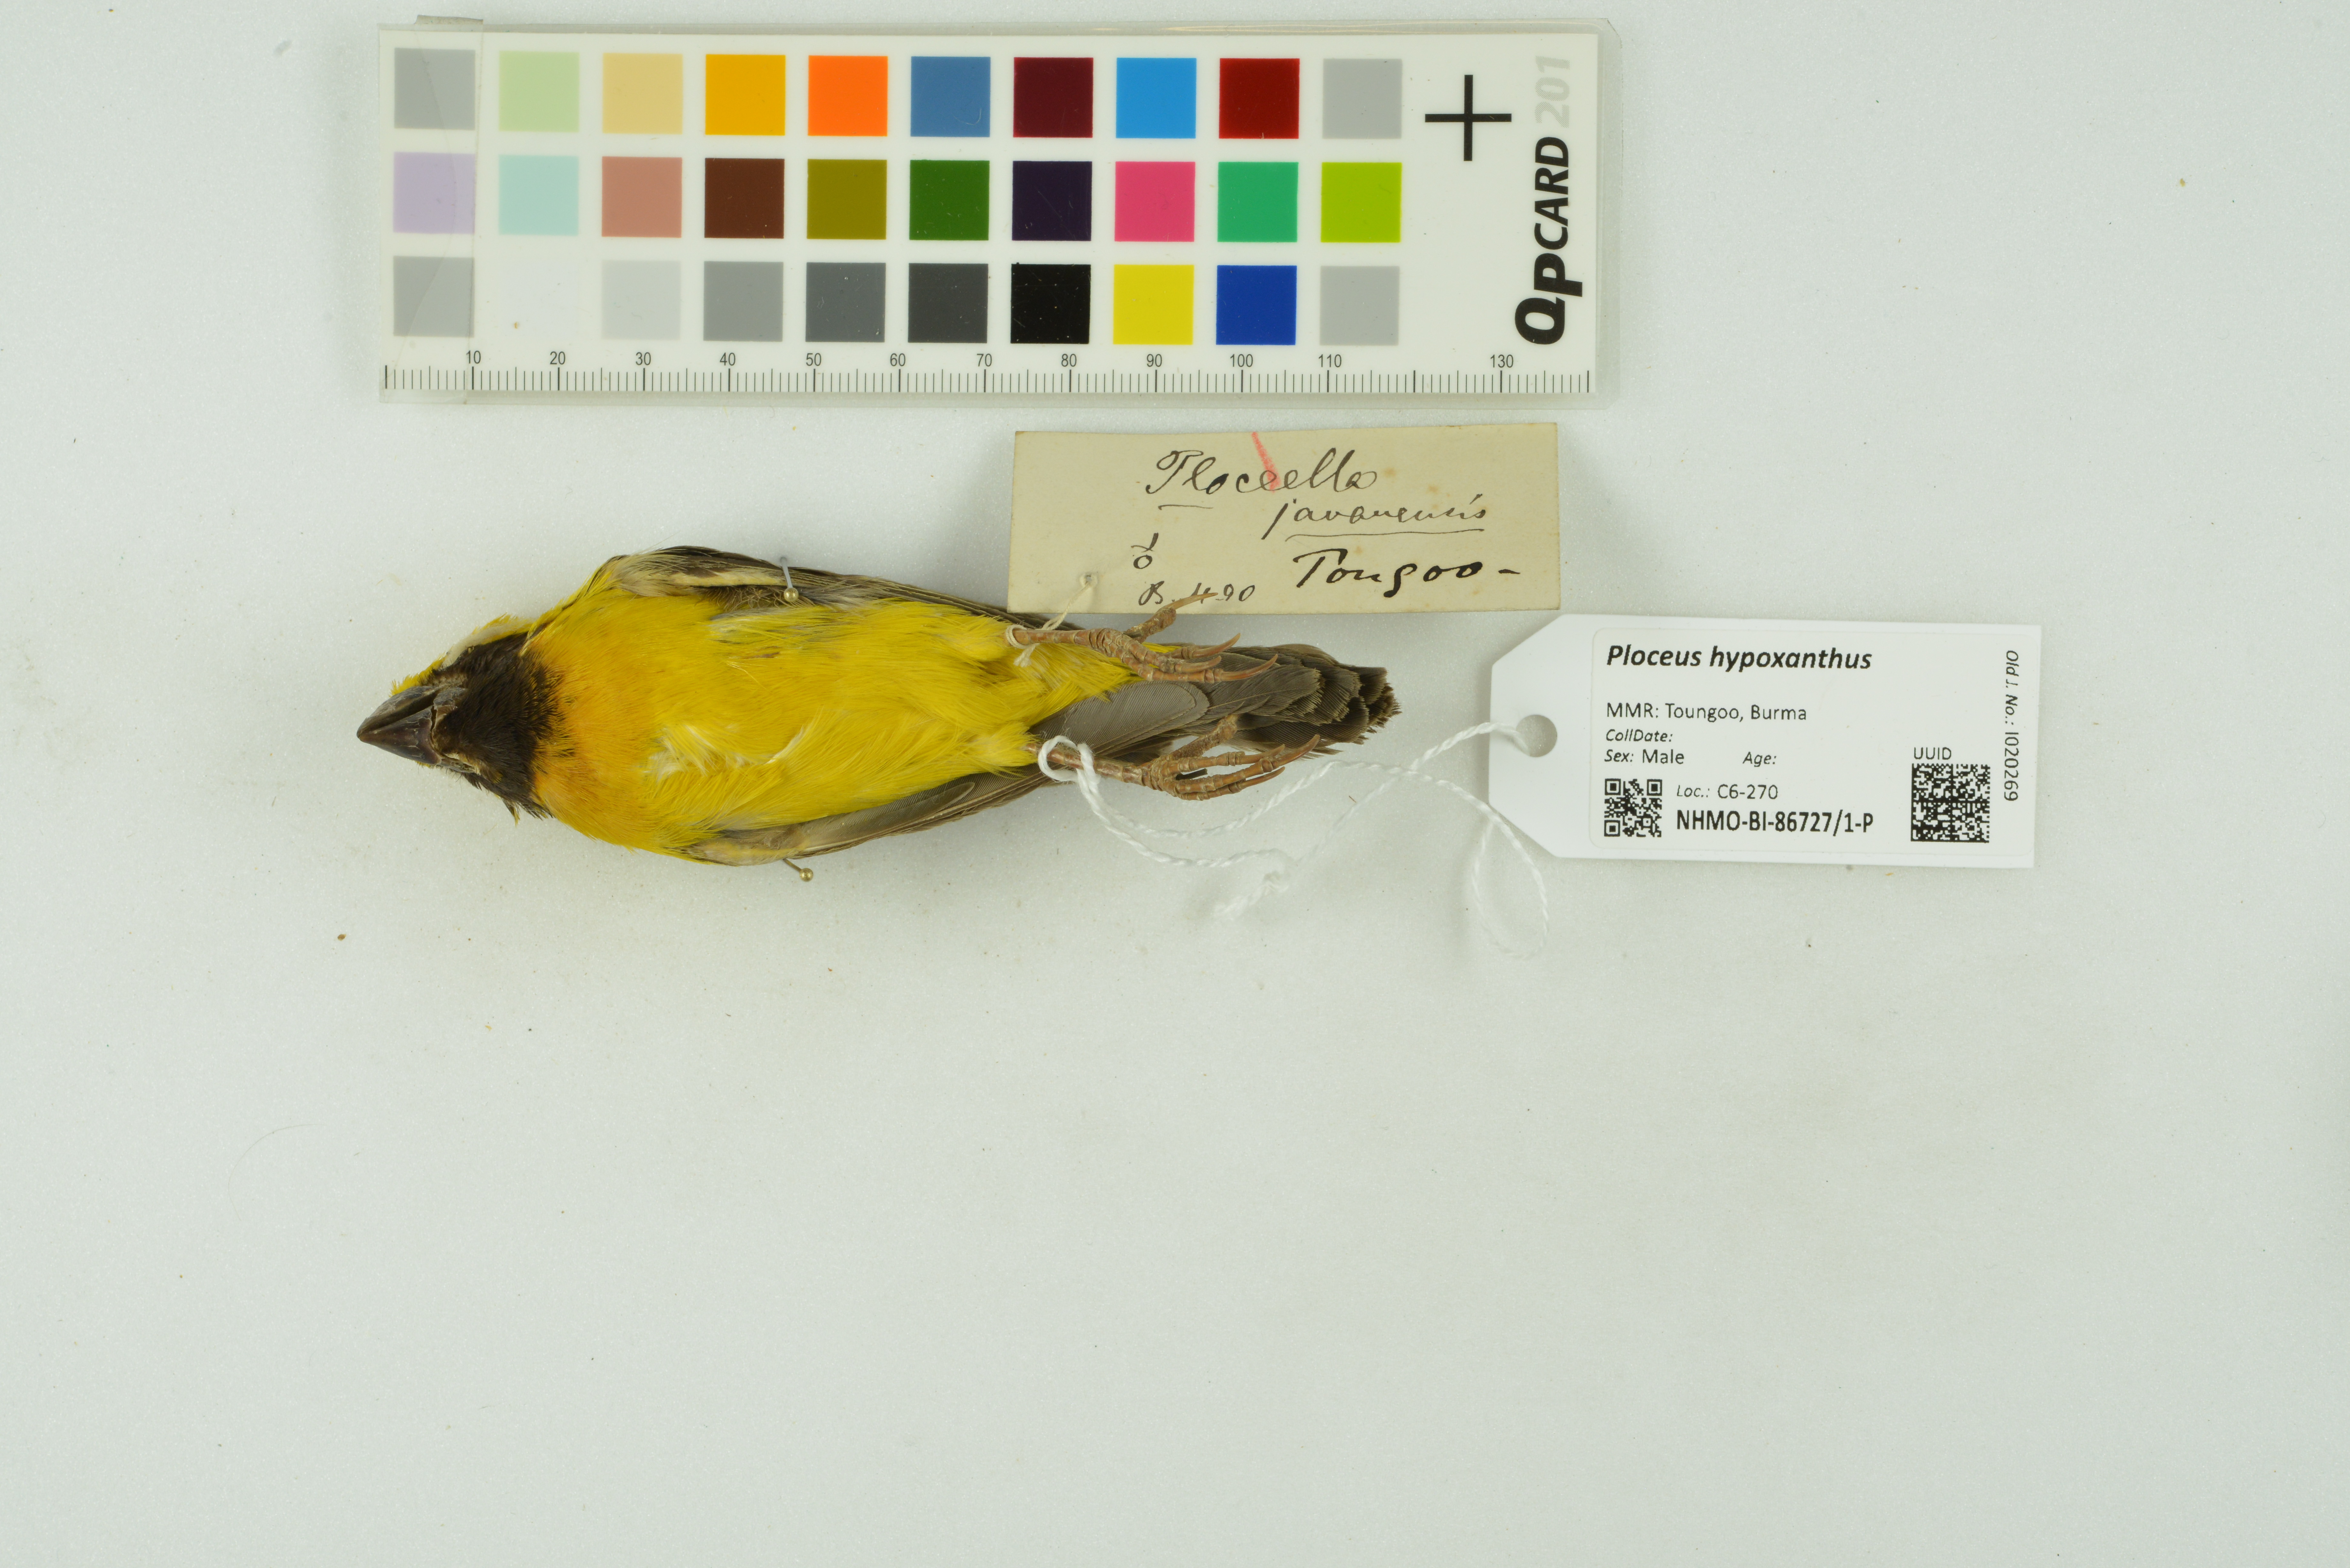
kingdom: Animalia
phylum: Chordata
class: Aves
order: Passeriformes
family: Ploceidae
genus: Ploceus
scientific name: Ploceus hypoxanthus
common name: Asian golden weaver
